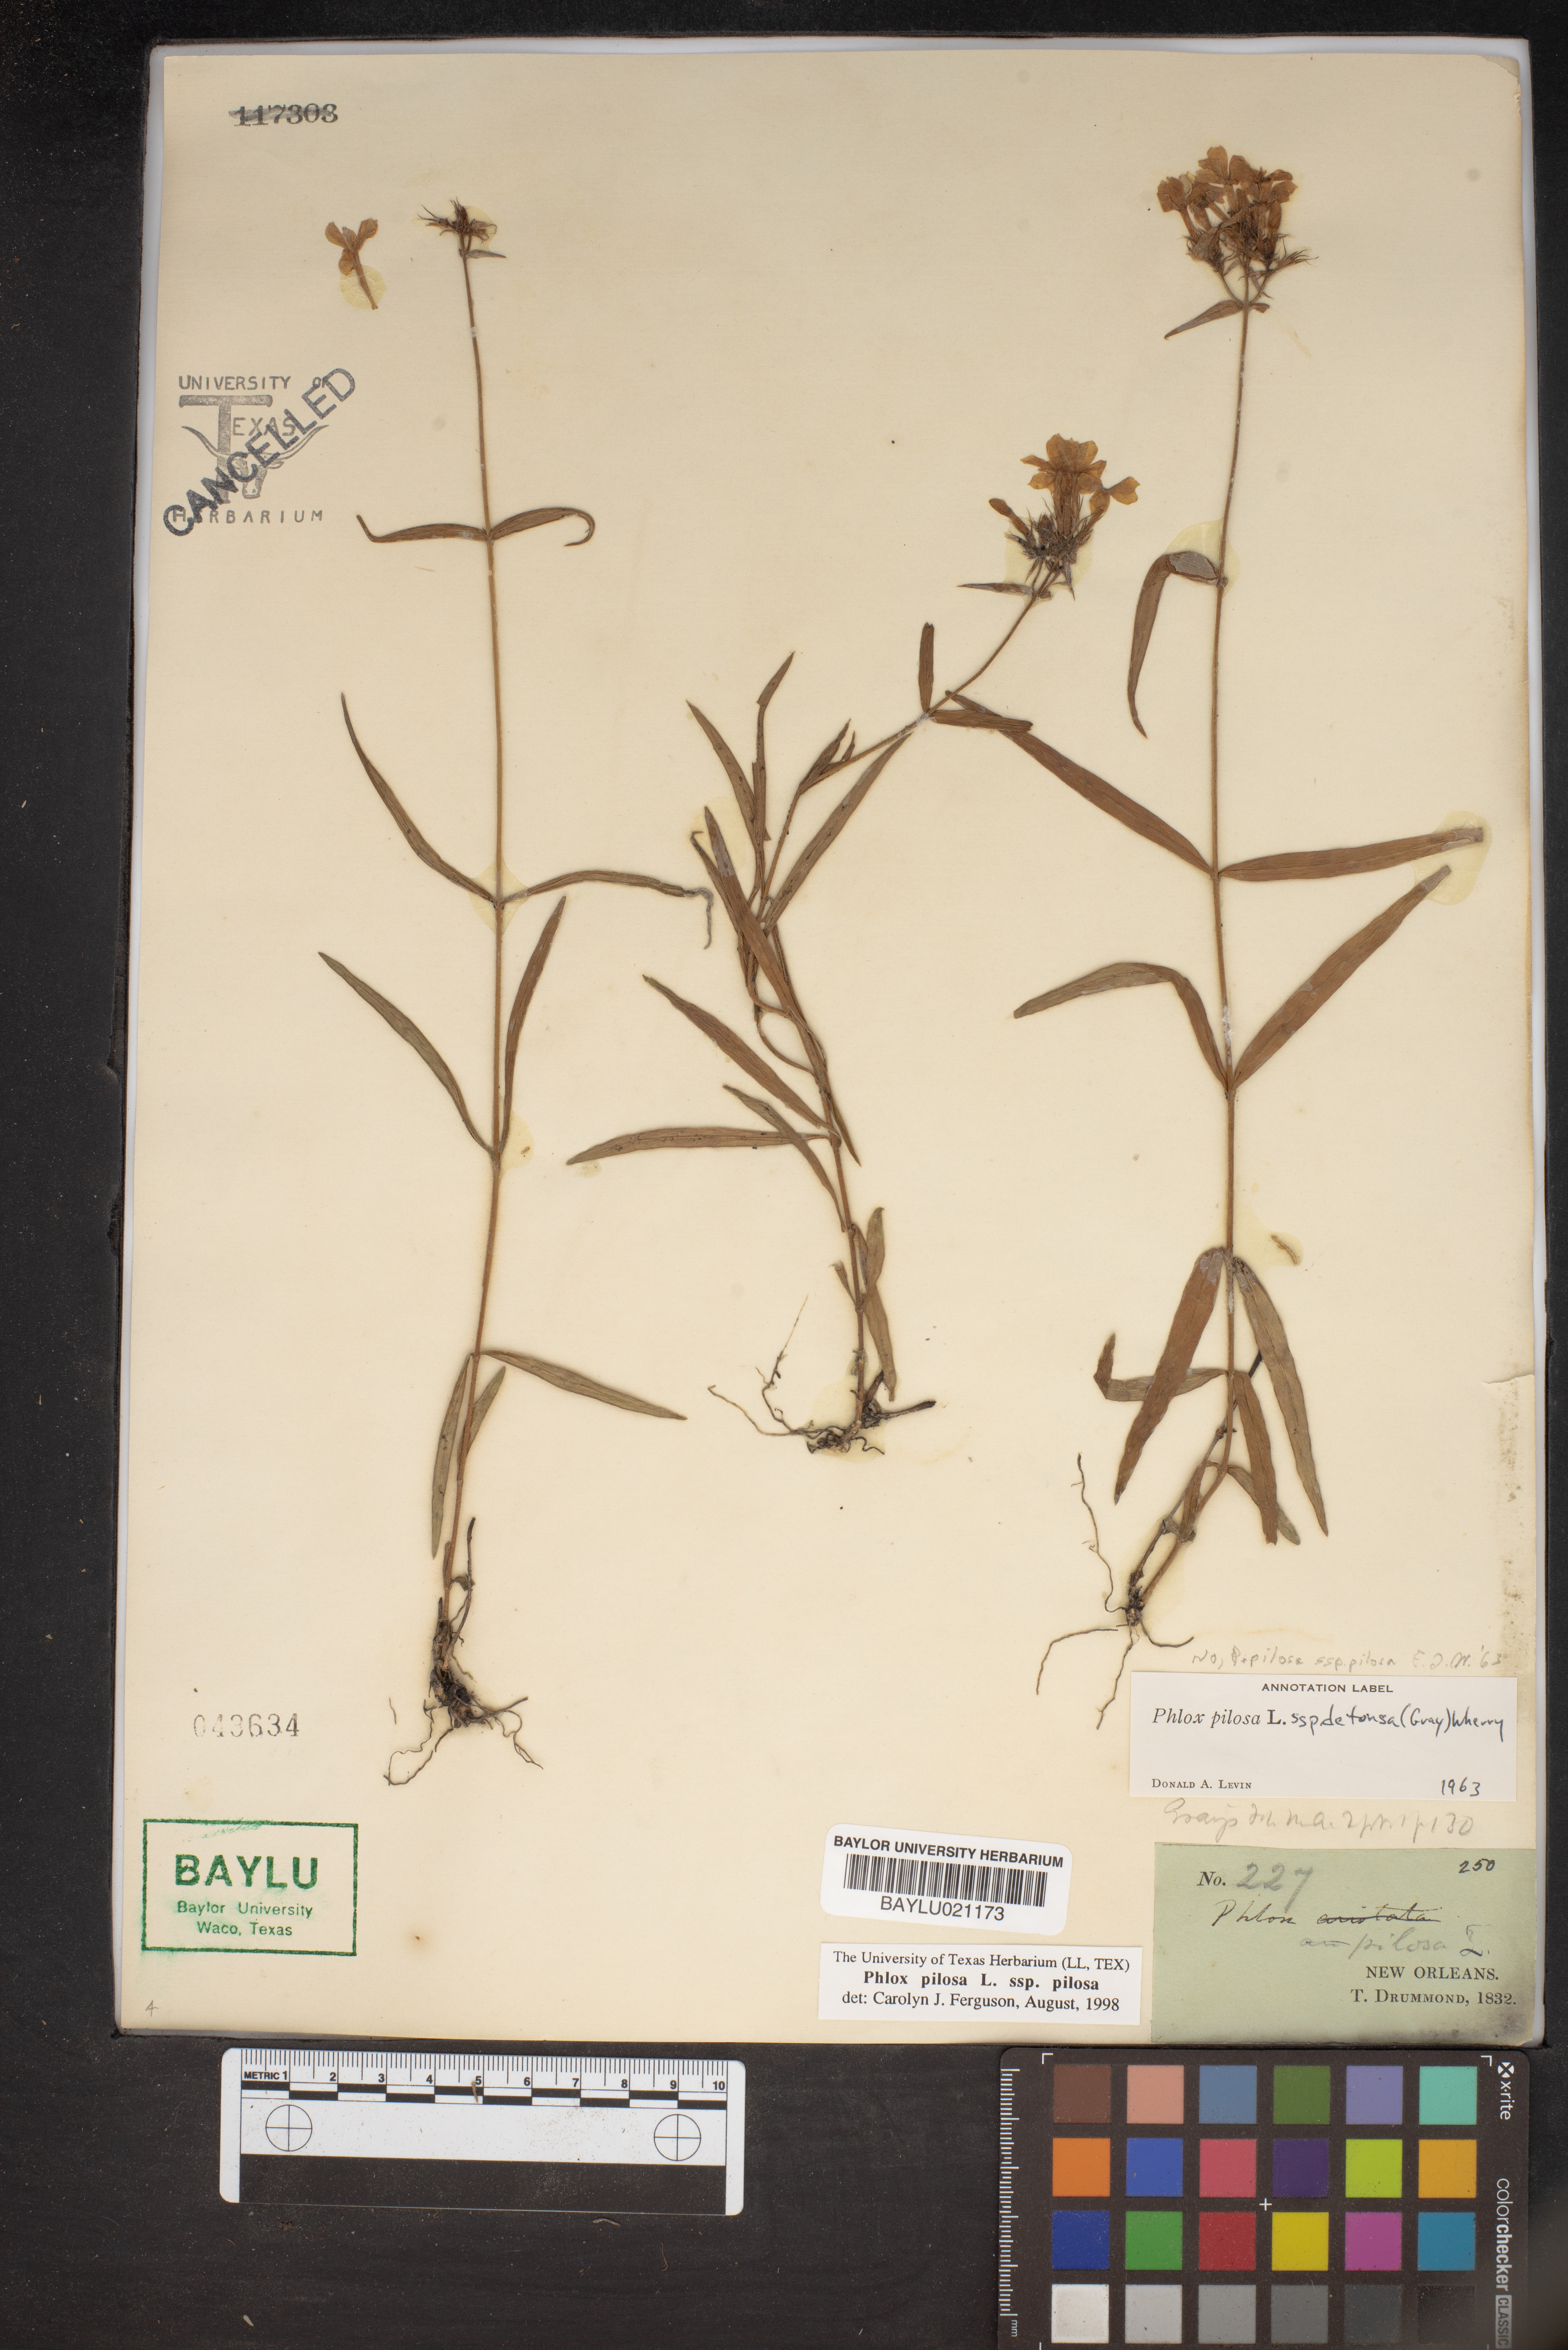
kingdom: Plantae
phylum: Tracheophyta
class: Magnoliopsida
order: Ericales
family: Polemoniaceae
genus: Phlox
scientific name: Phlox pilosa
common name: Prairie phlox
